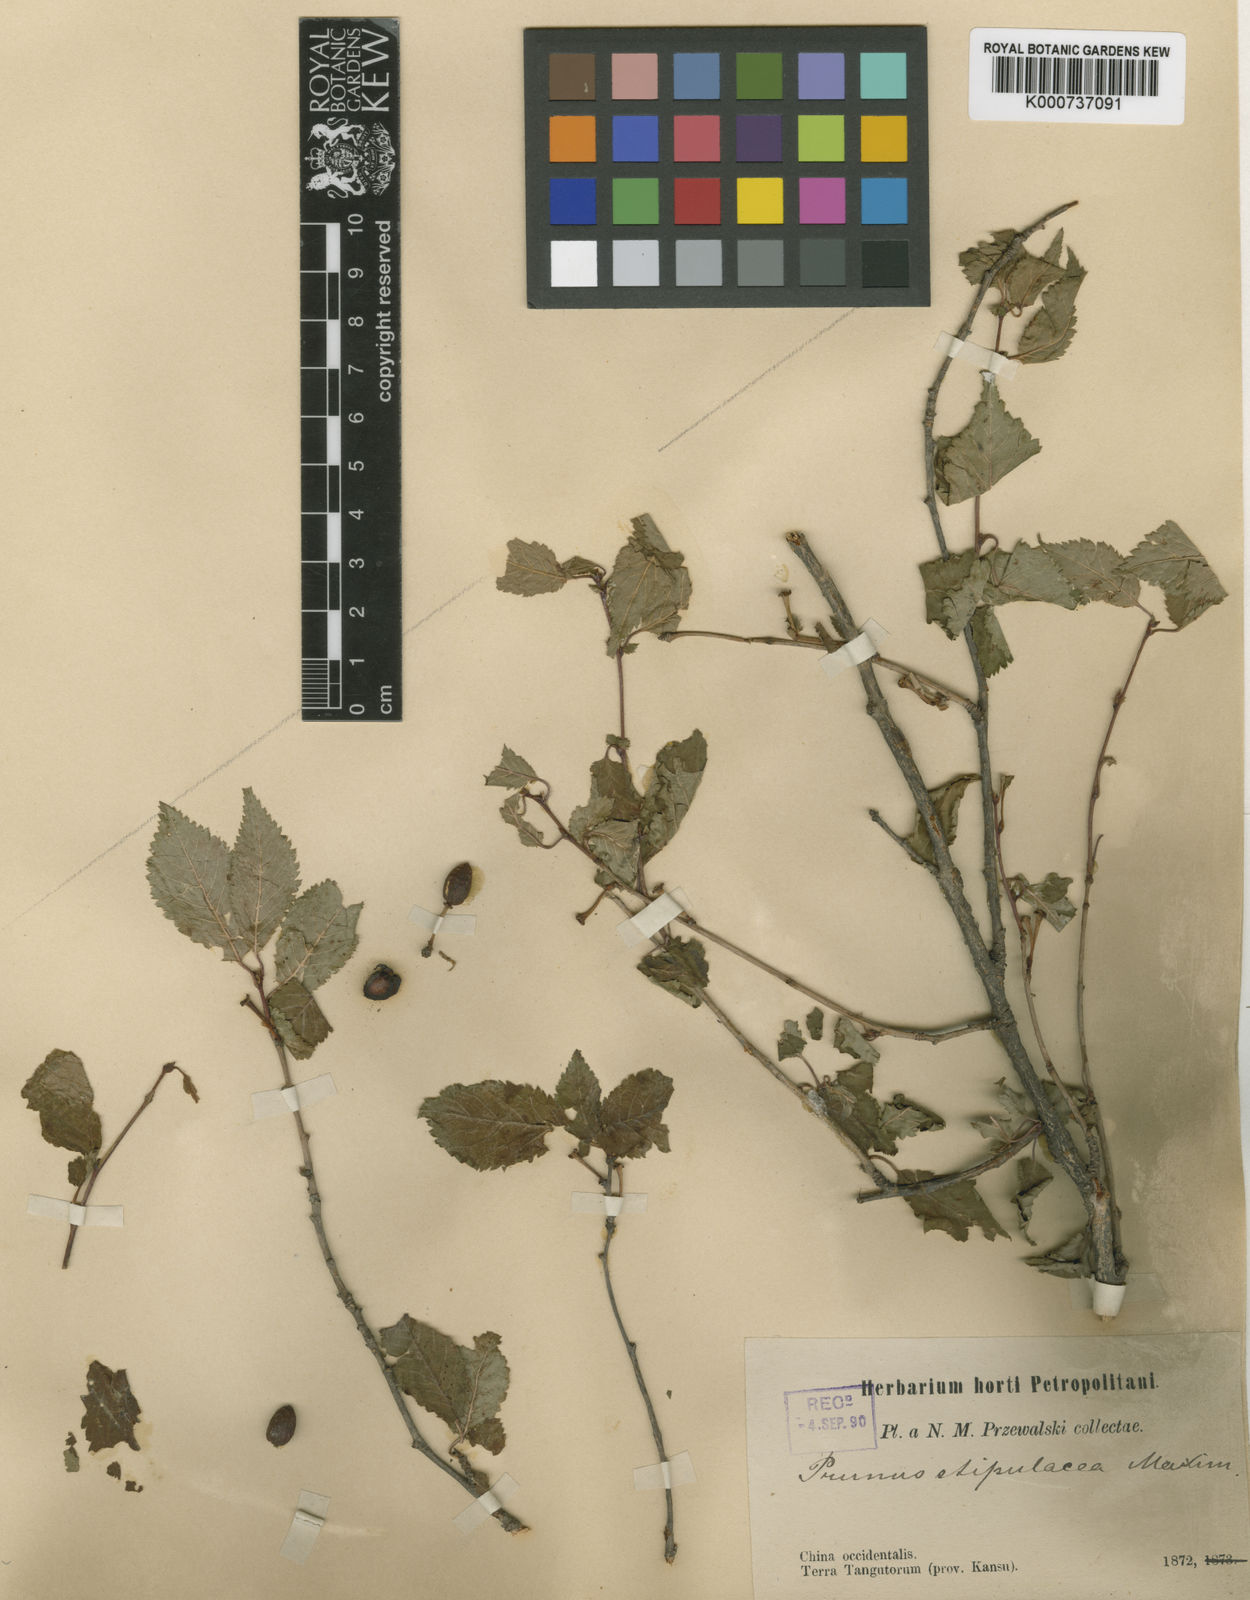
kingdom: Plantae
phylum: Tracheophyta
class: Magnoliopsida
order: Rosales
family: Rosaceae
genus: Prunus
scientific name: Prunus stipulacea
